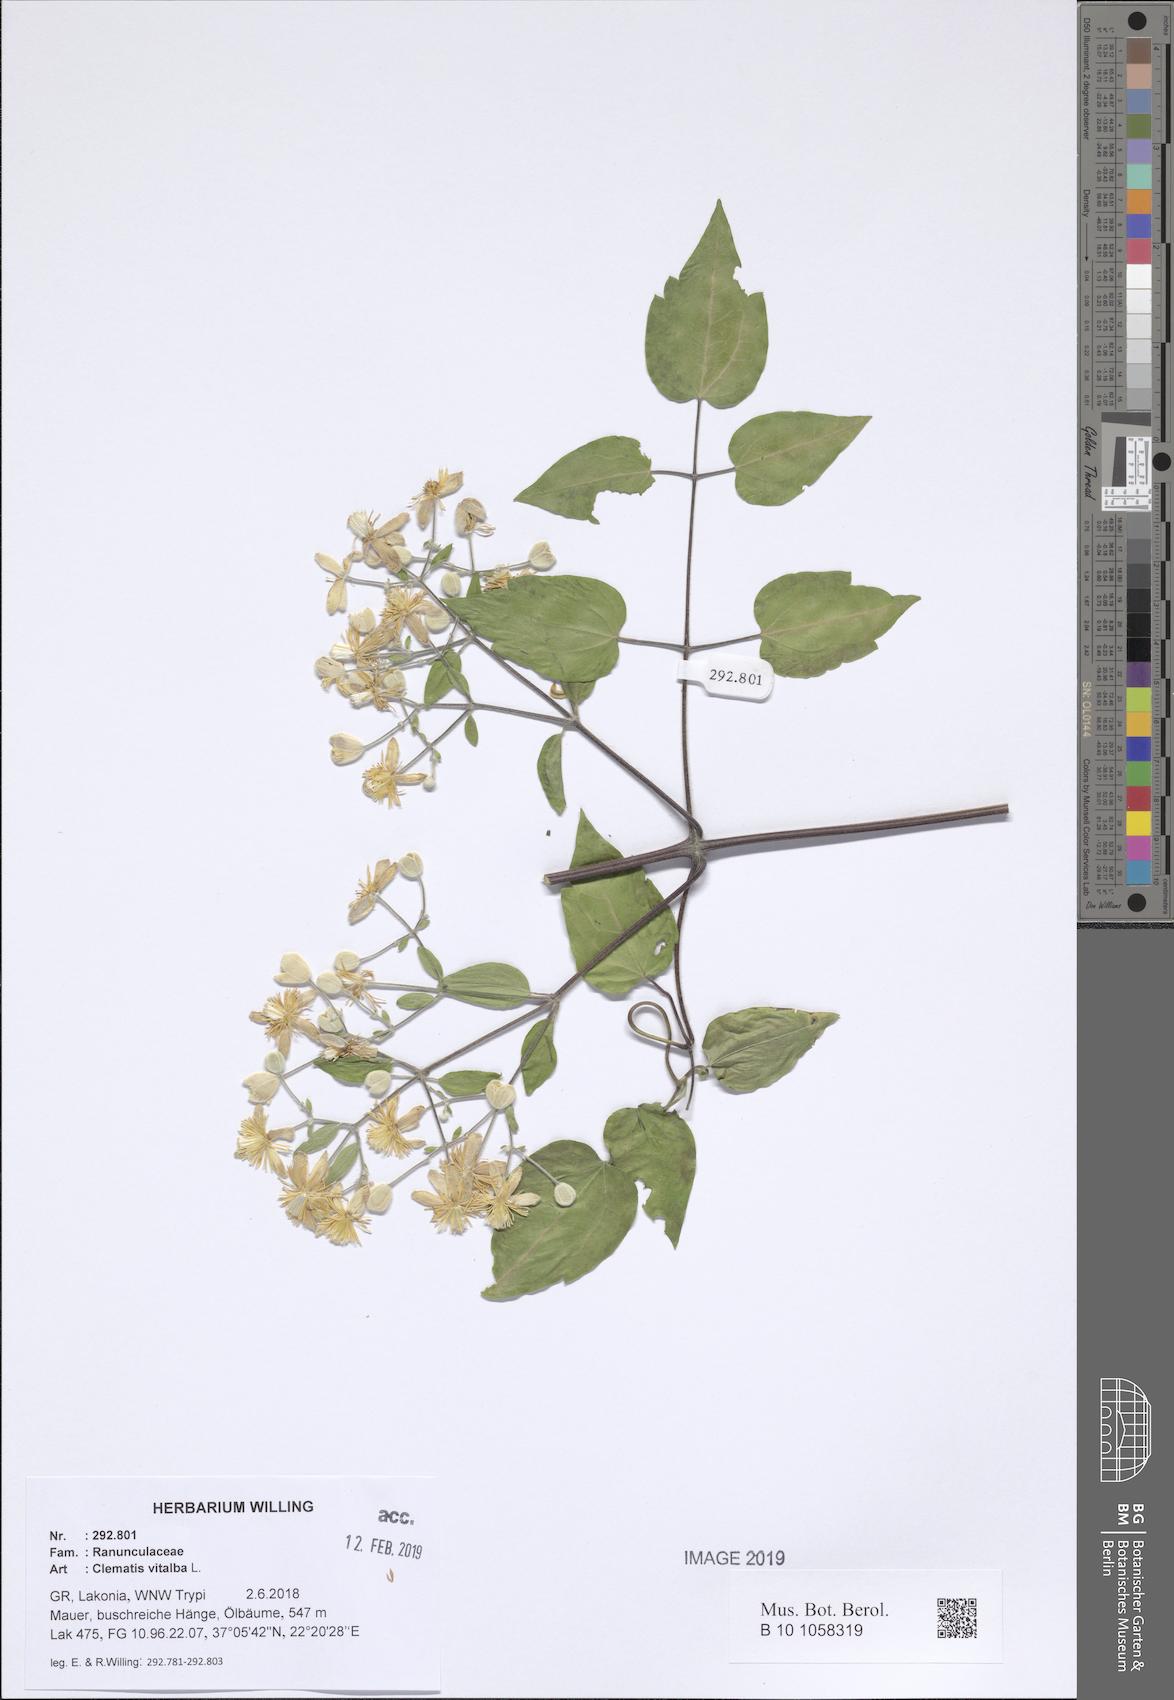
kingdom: Plantae
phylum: Tracheophyta
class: Magnoliopsida
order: Ranunculales
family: Ranunculaceae
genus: Clematis
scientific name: Clematis vitalba
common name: Evergreen clematis
